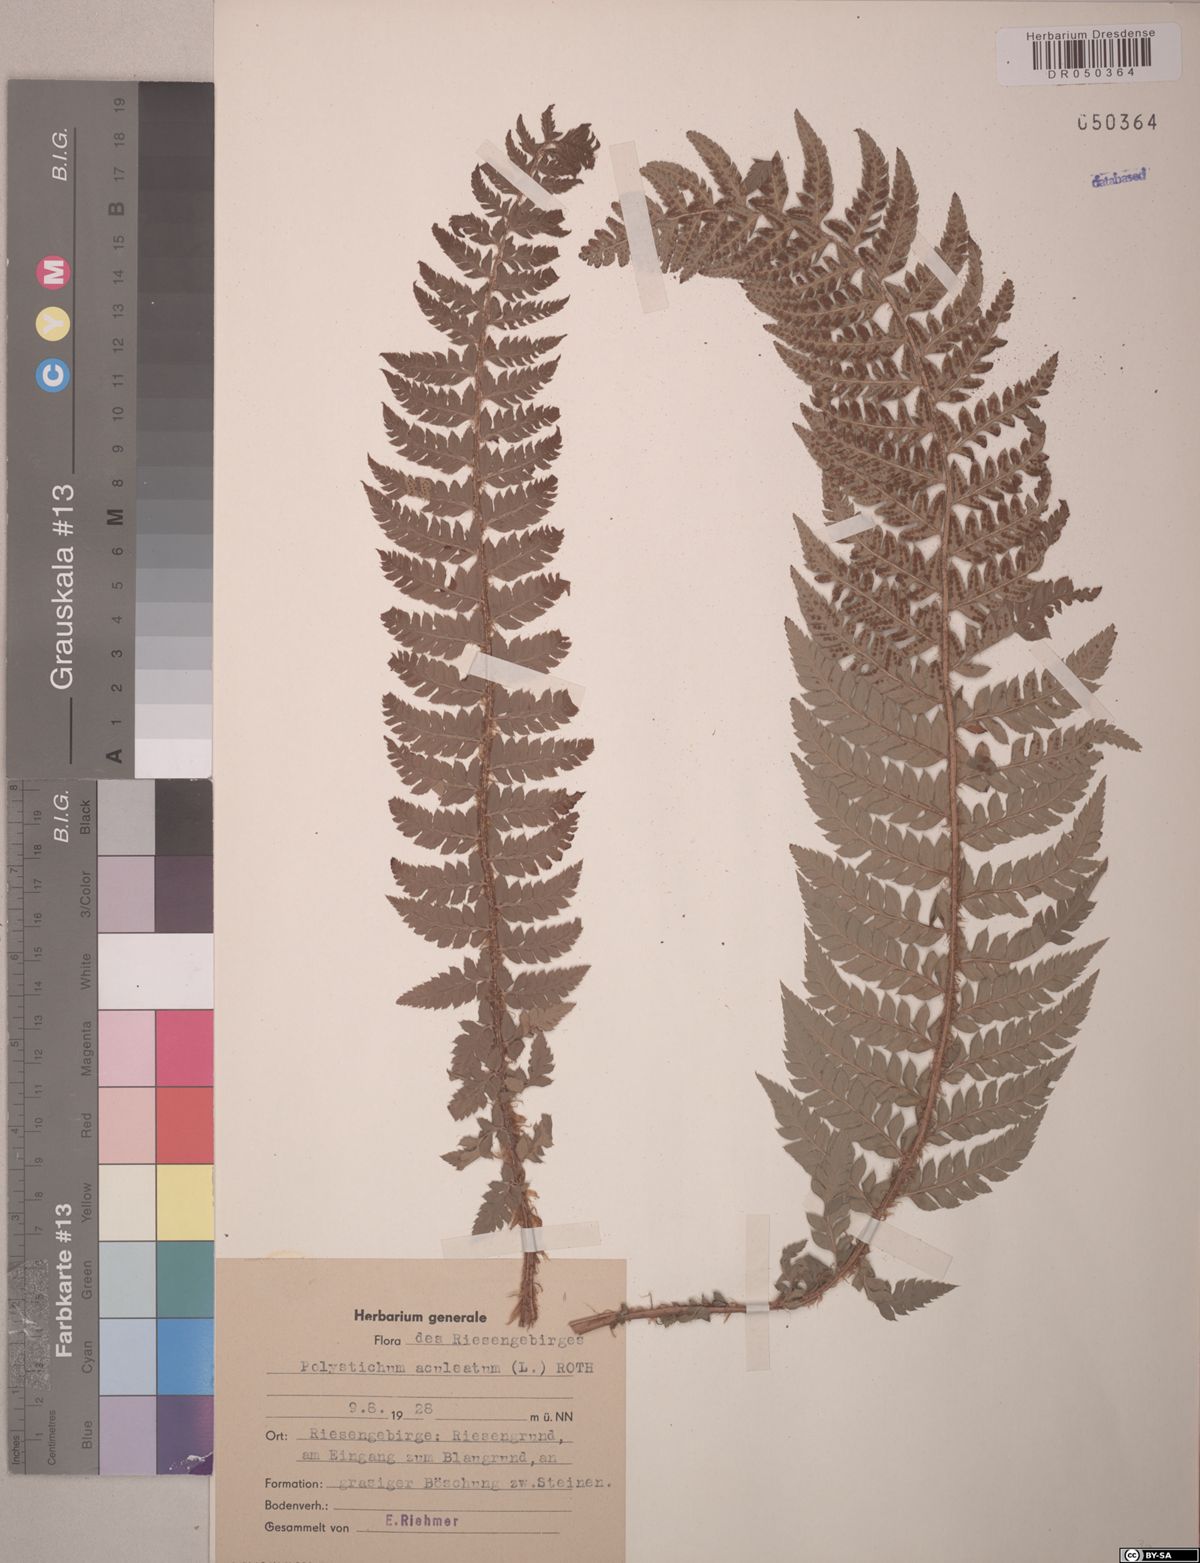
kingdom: Plantae
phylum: Tracheophyta
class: Polypodiopsida
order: Polypodiales
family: Dryopteridaceae
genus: Polystichum
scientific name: Polystichum aculeatum
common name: Hard shield-fern
